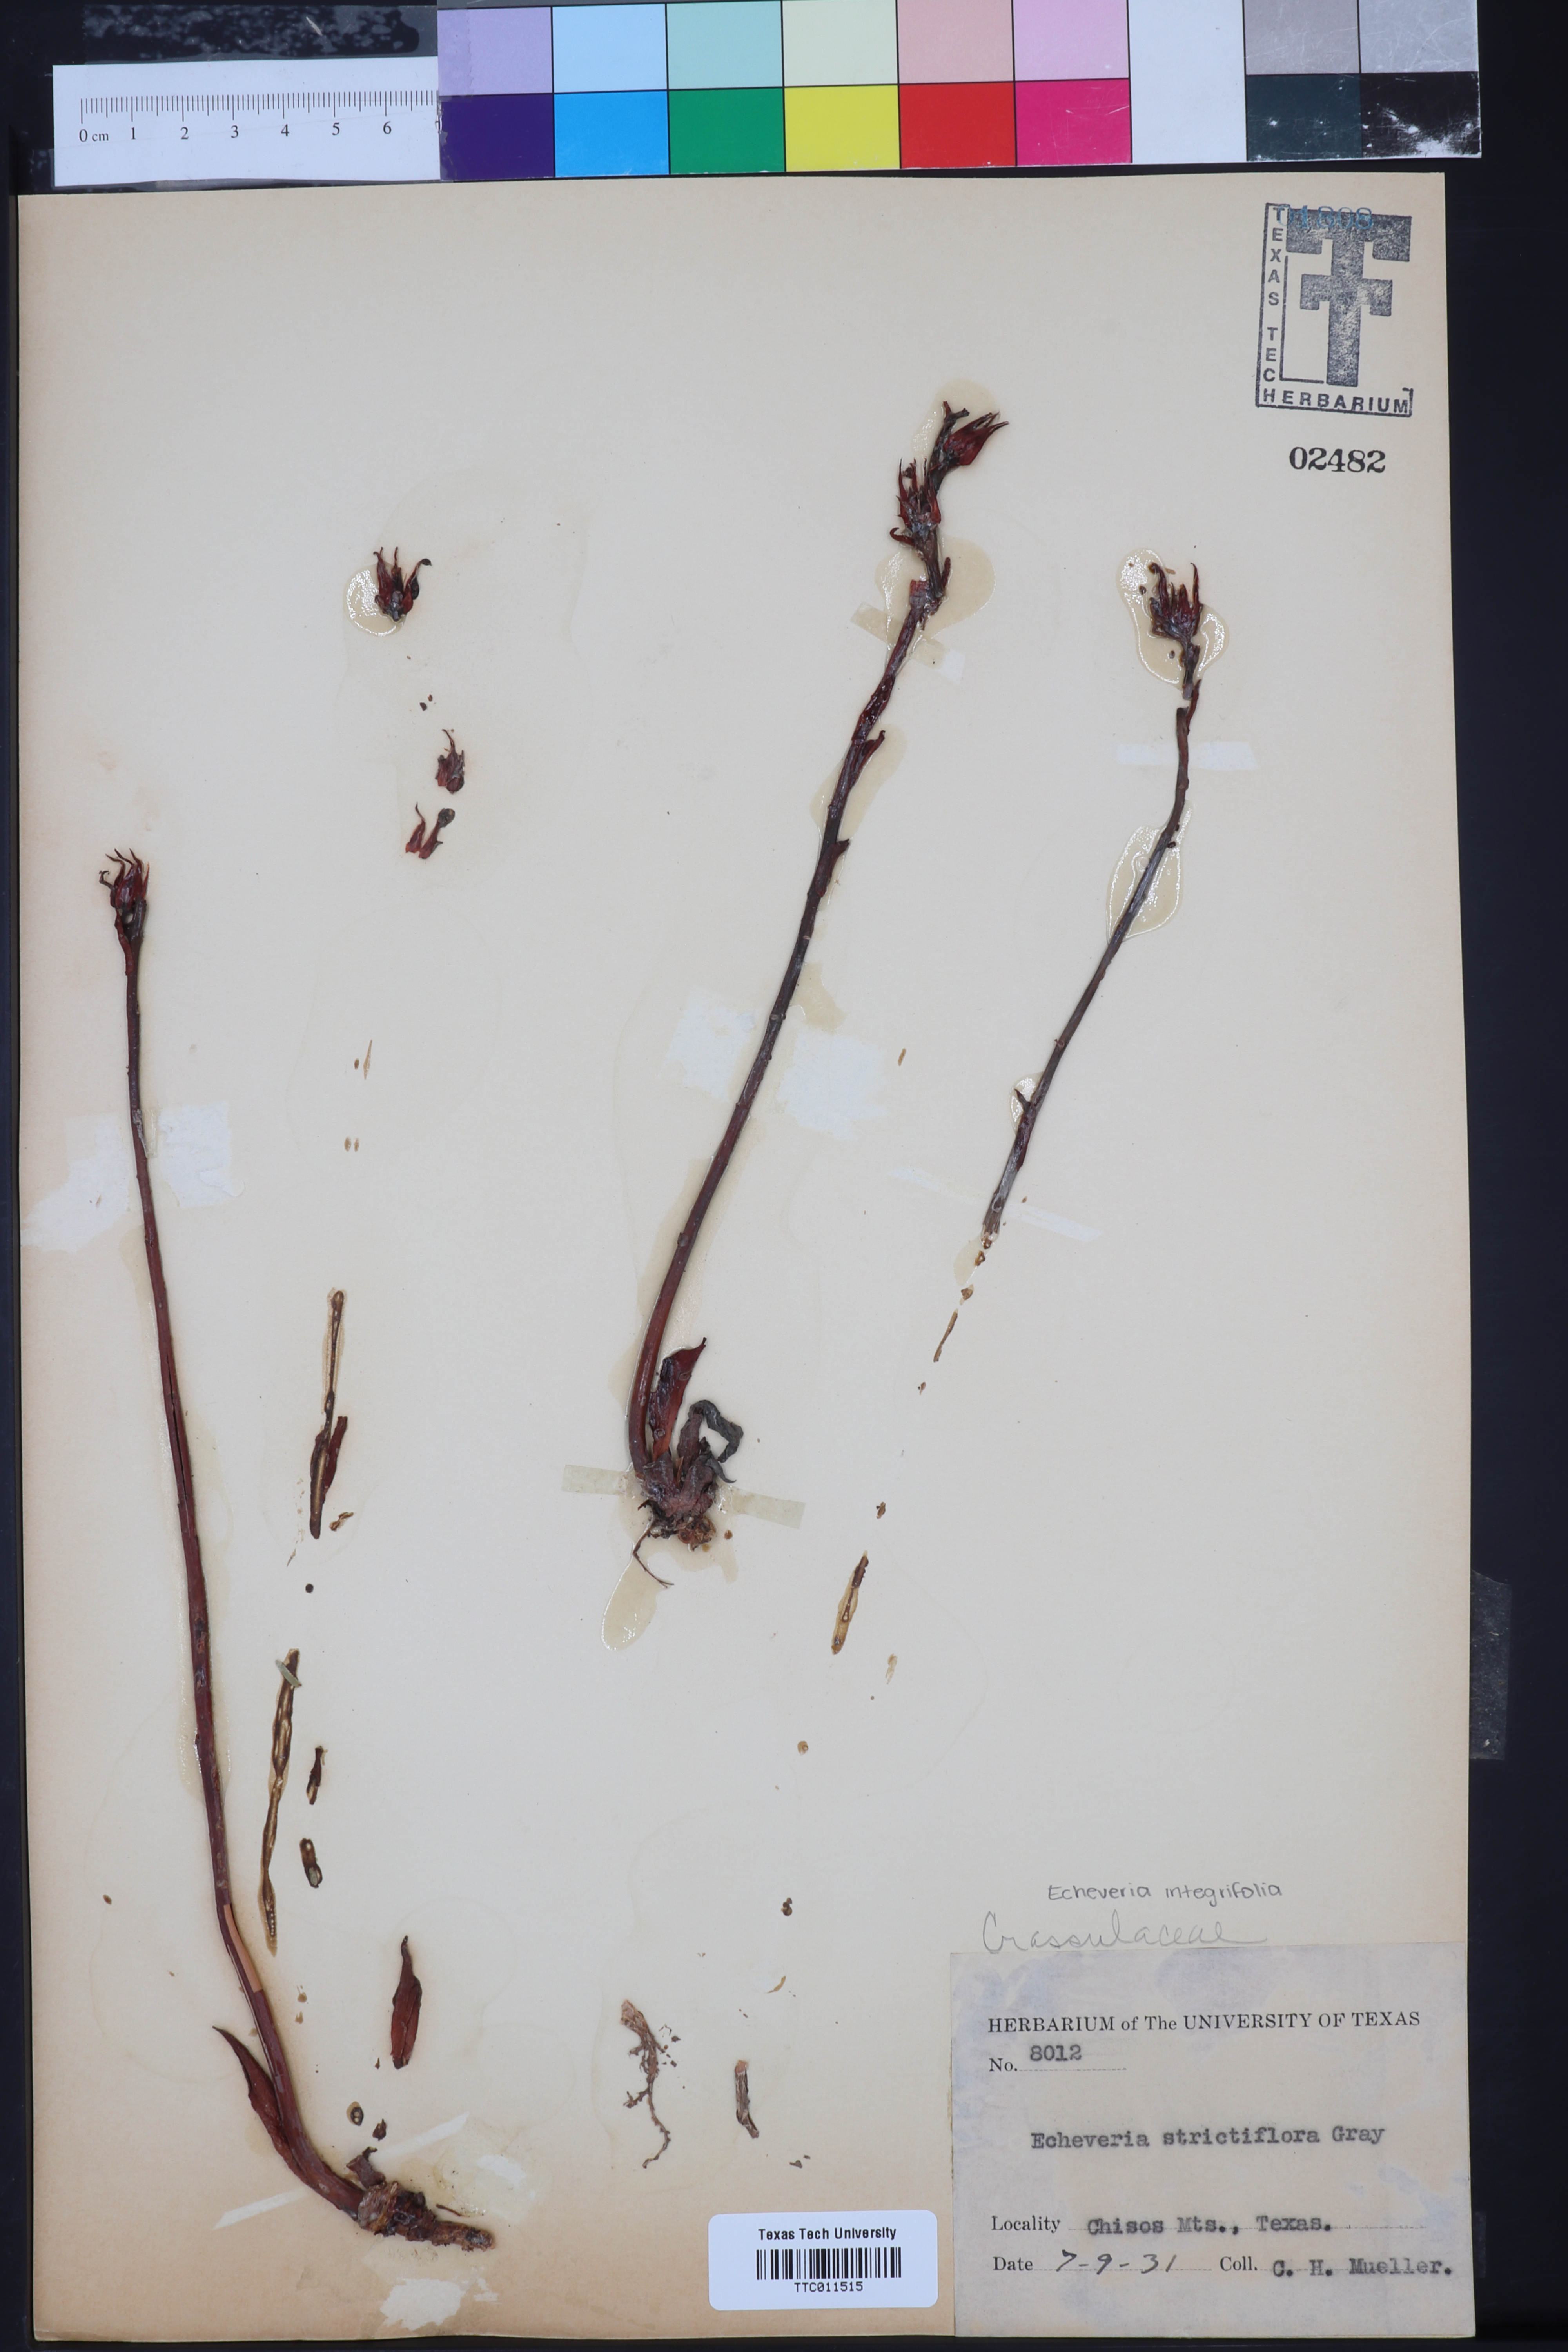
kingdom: Plantae
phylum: Tracheophyta
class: Magnoliopsida
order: Saxifragales
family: Crassulaceae
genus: Echeveria
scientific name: Echeveria strictiflora
